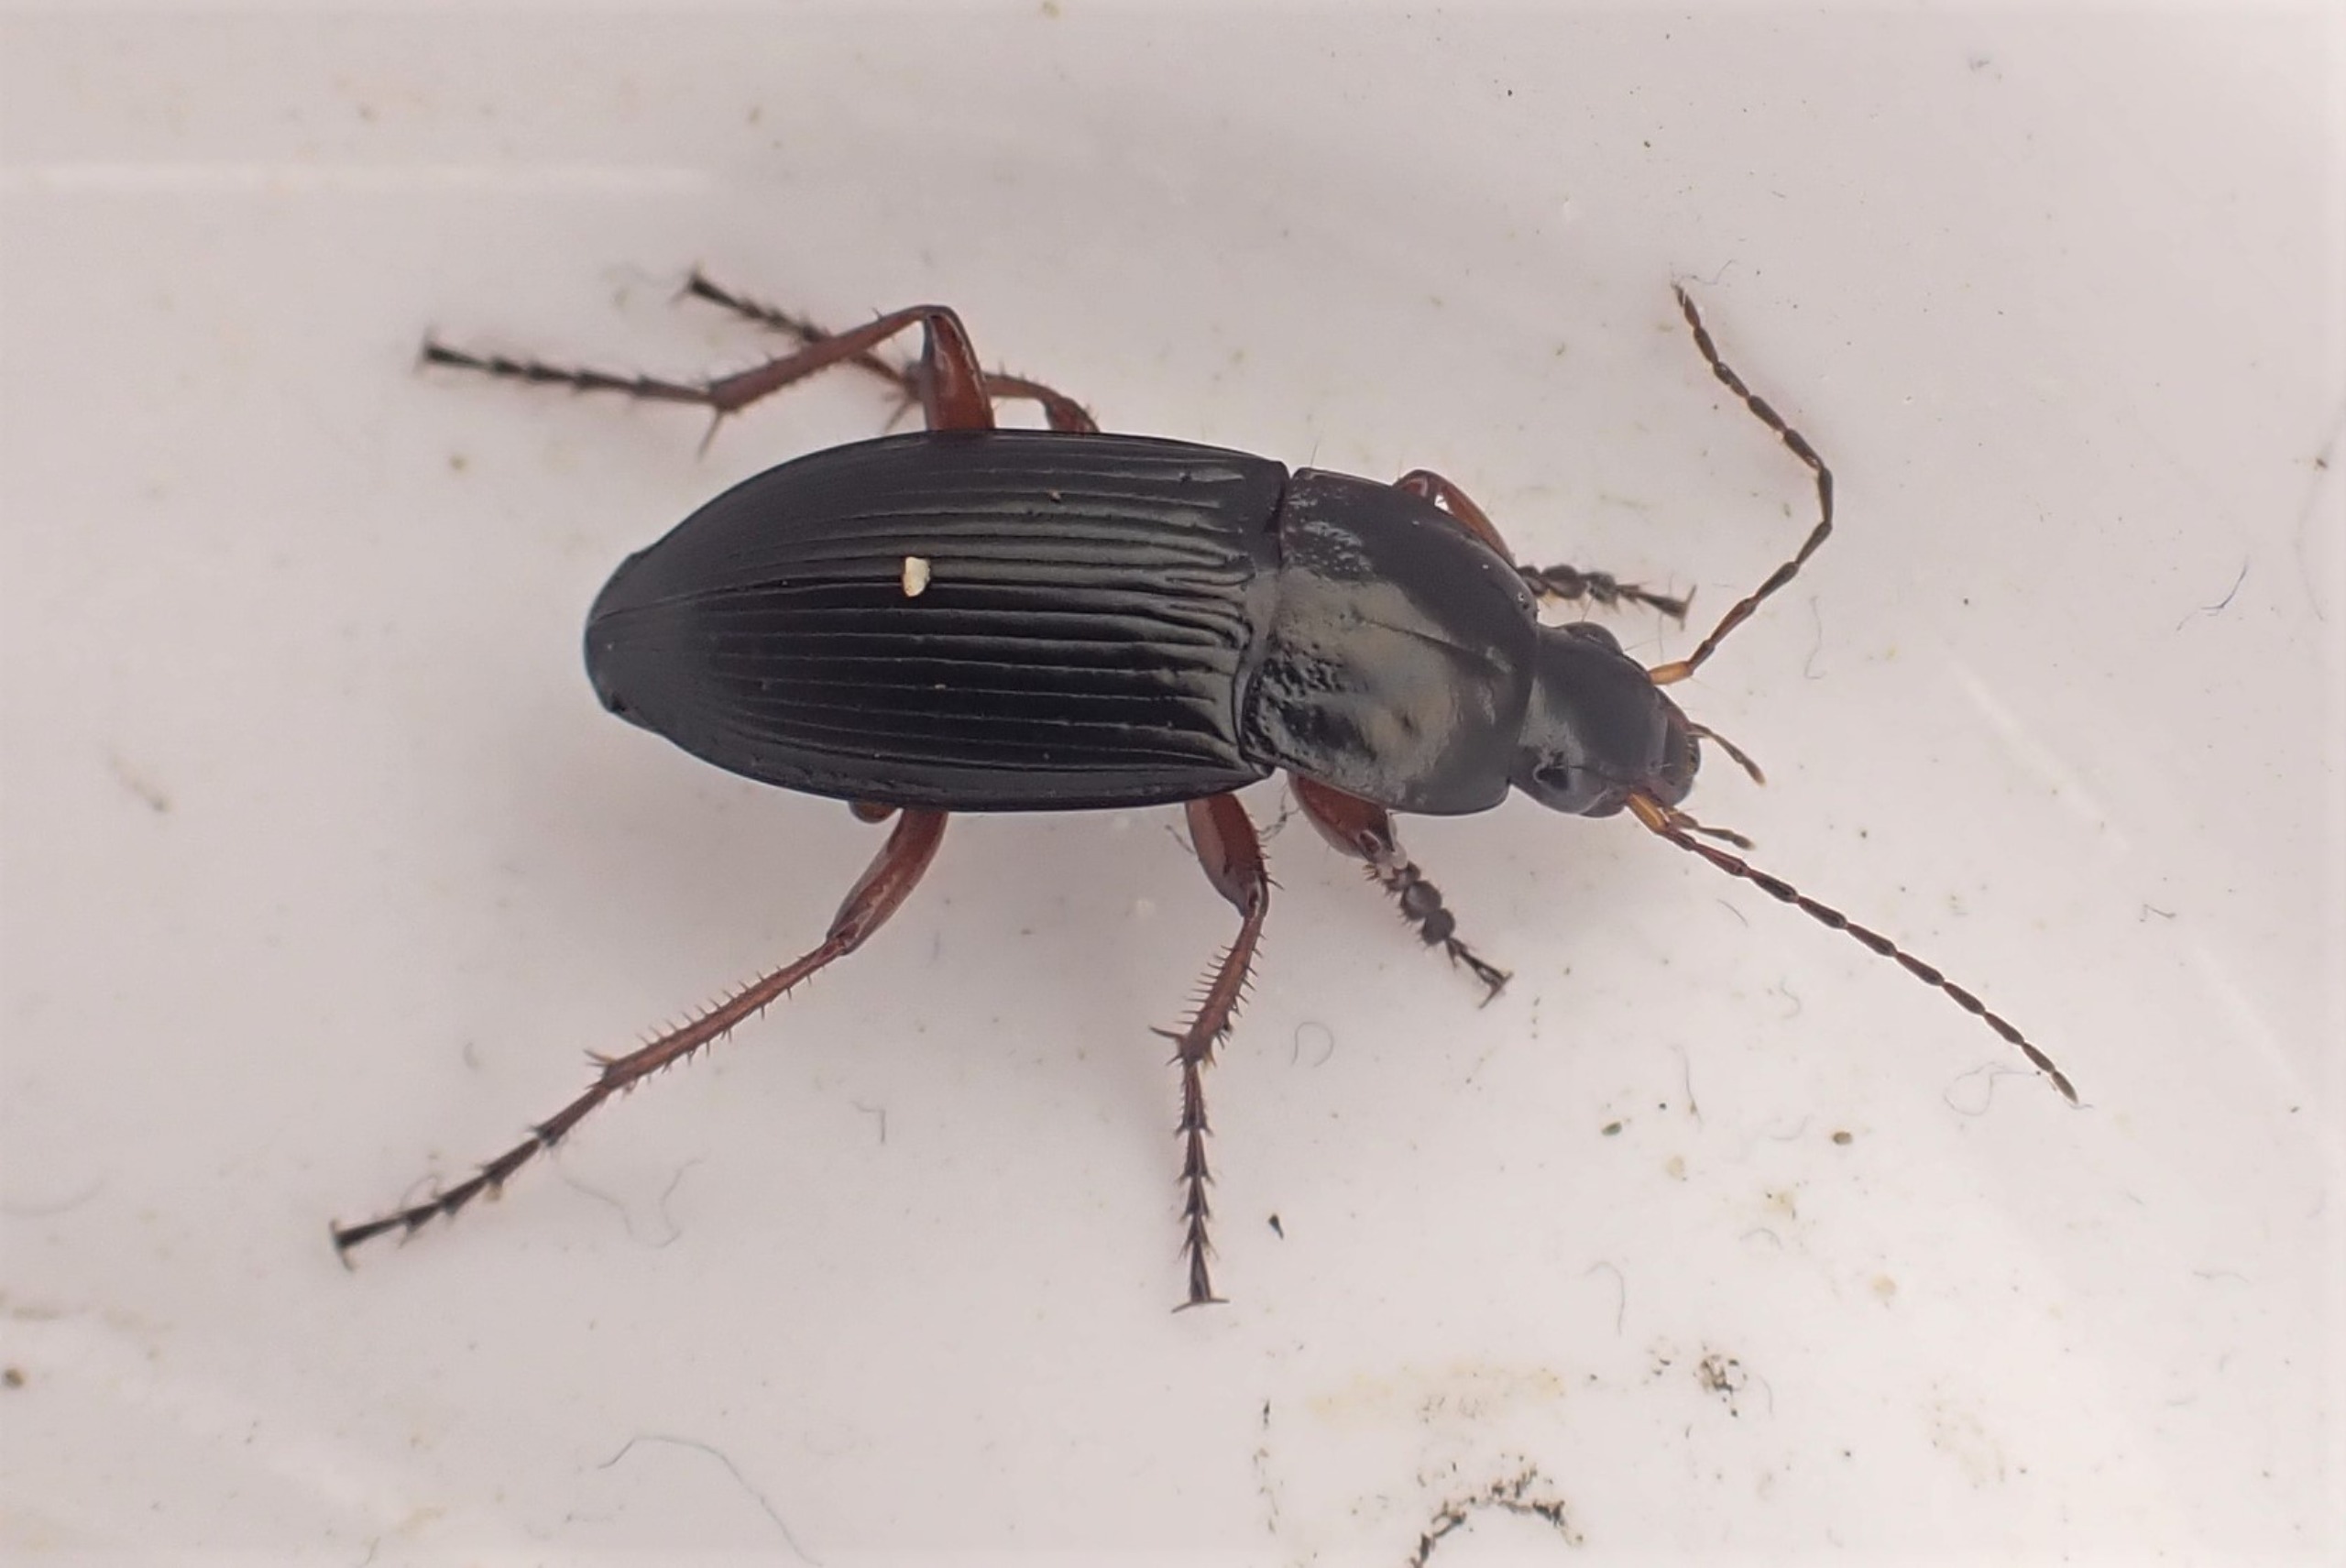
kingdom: Animalia
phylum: Arthropoda
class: Insecta
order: Coleoptera
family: Carabidae
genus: Calathus
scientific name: Calathus fuscipes
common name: Stor torpedoløber
